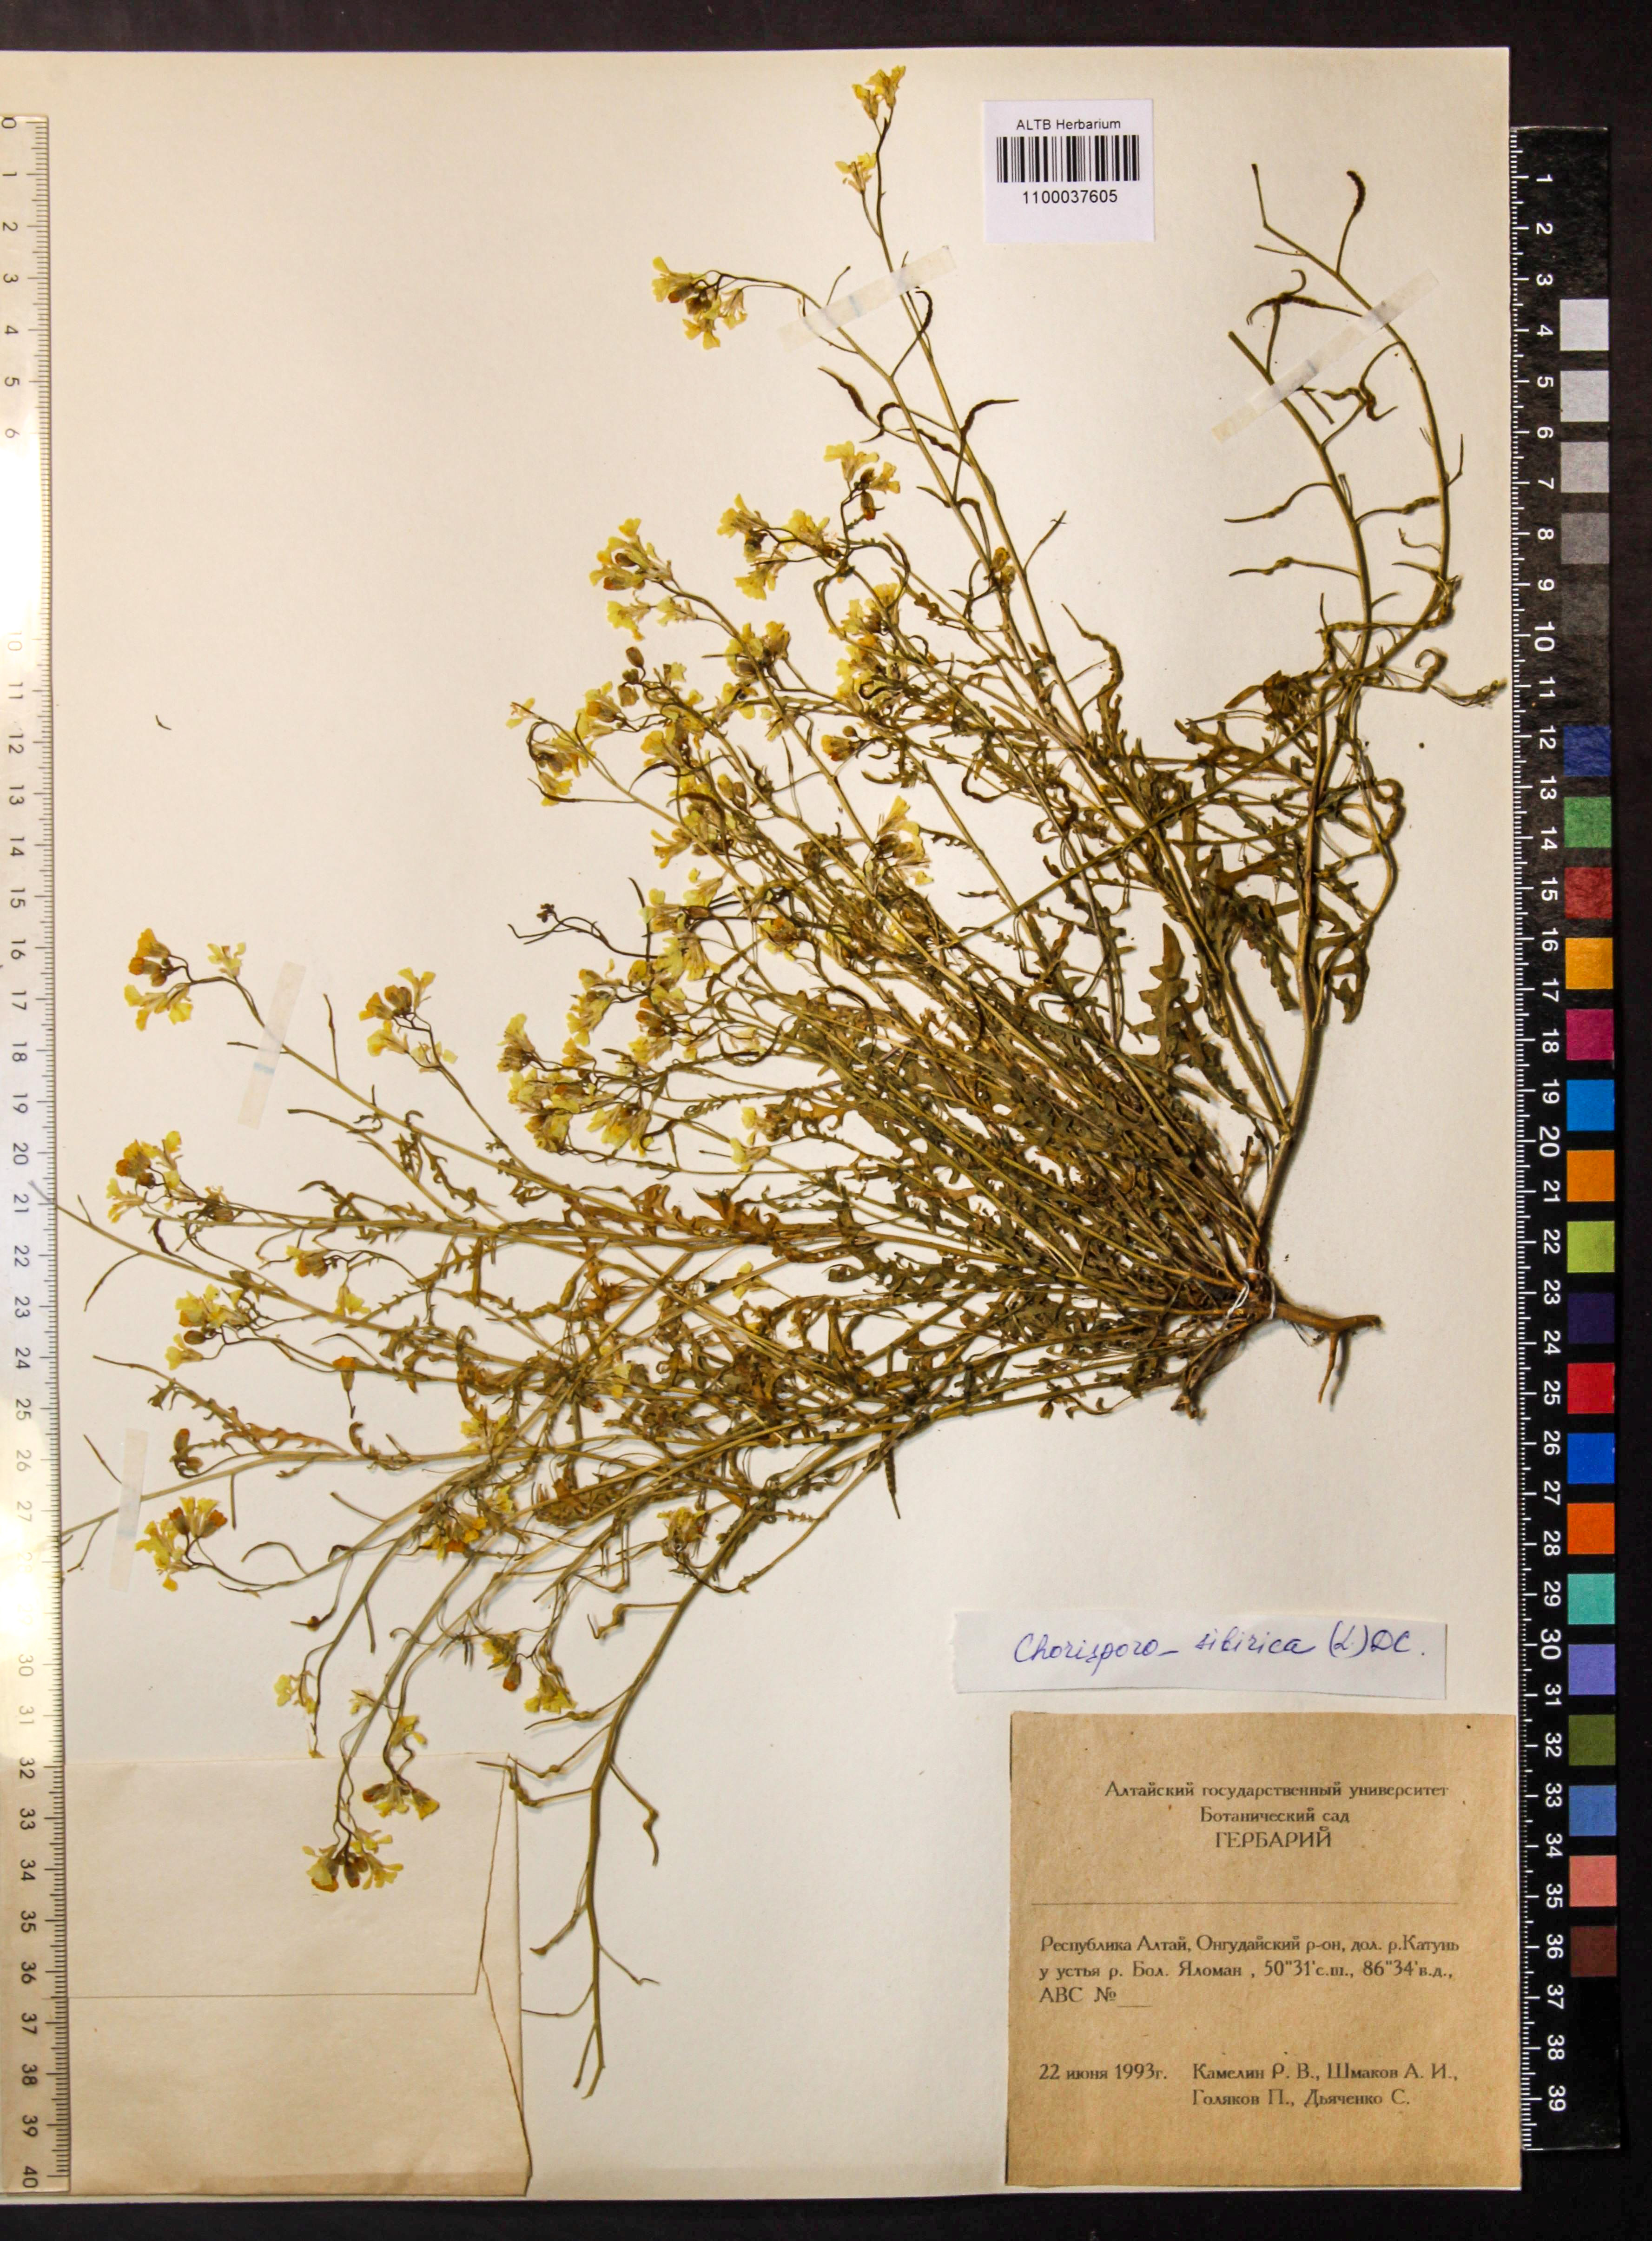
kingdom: Plantae
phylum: Tracheophyta
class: Magnoliopsida
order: Brassicales
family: Brassicaceae
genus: Chorispora
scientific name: Chorispora sibirica
